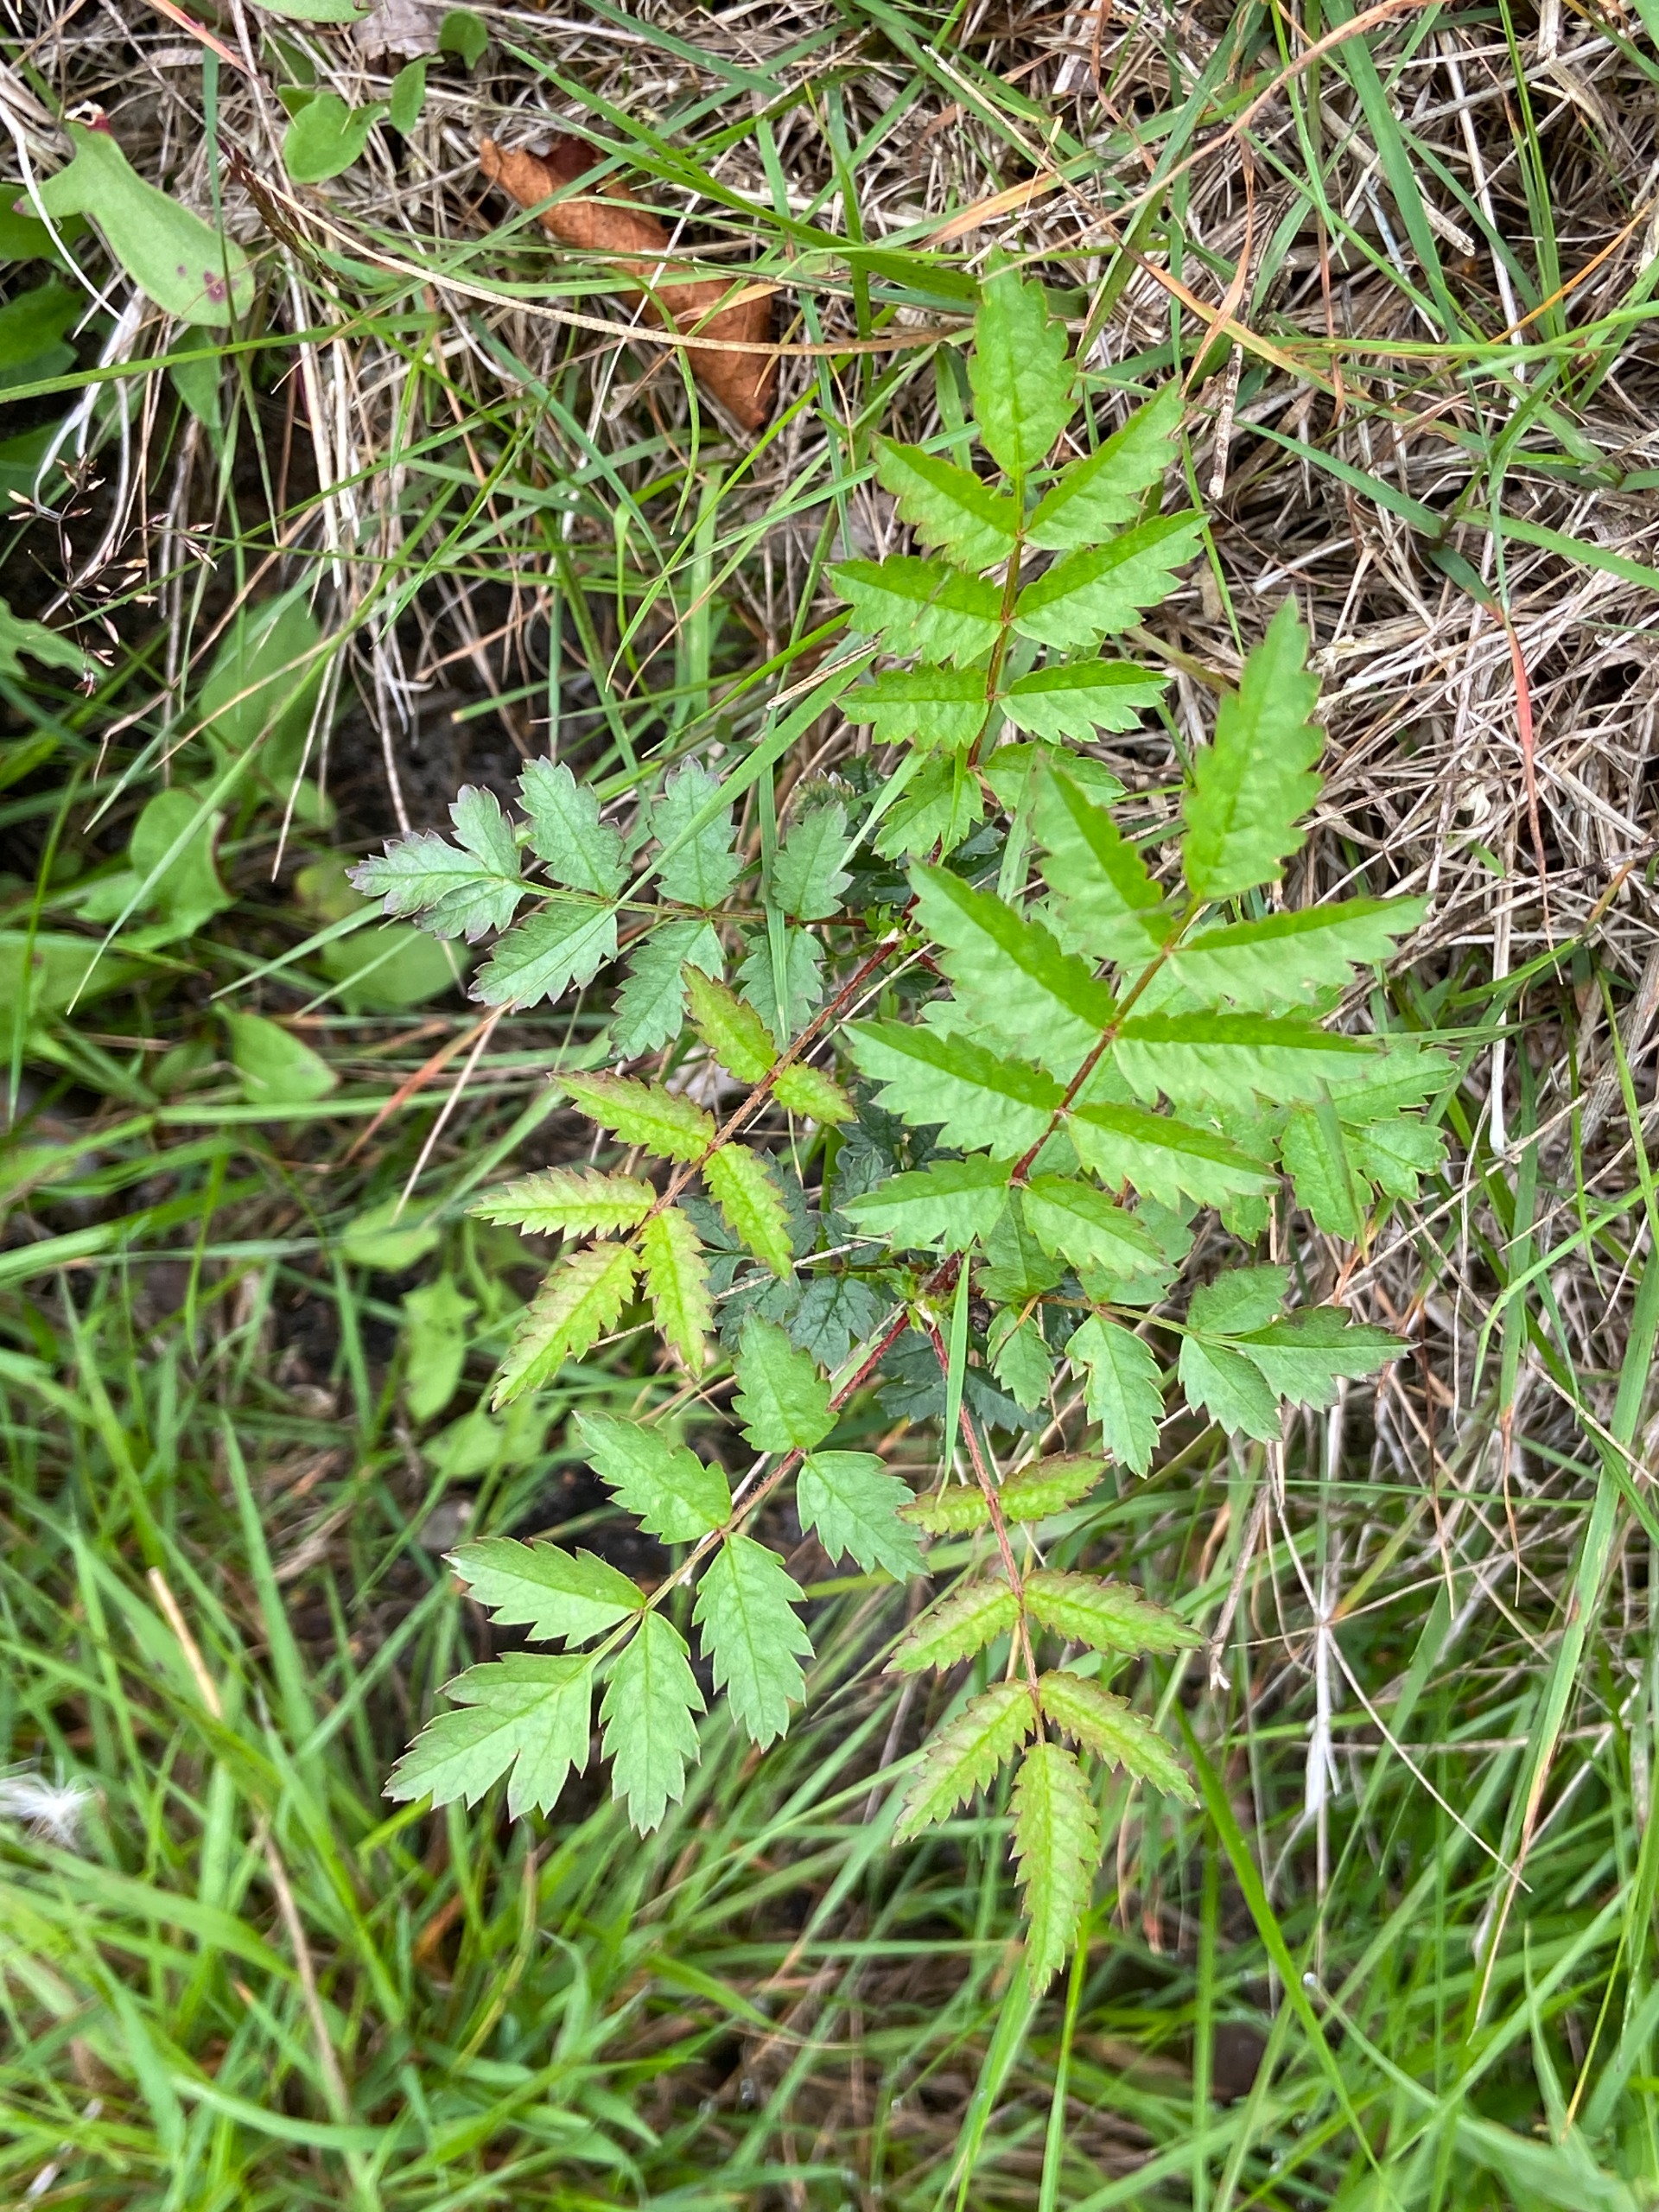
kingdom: Plantae
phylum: Tracheophyta
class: Magnoliopsida
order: Rosales
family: Rosaceae
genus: Sorbus
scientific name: Sorbus aucuparia
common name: Almindelig røn
